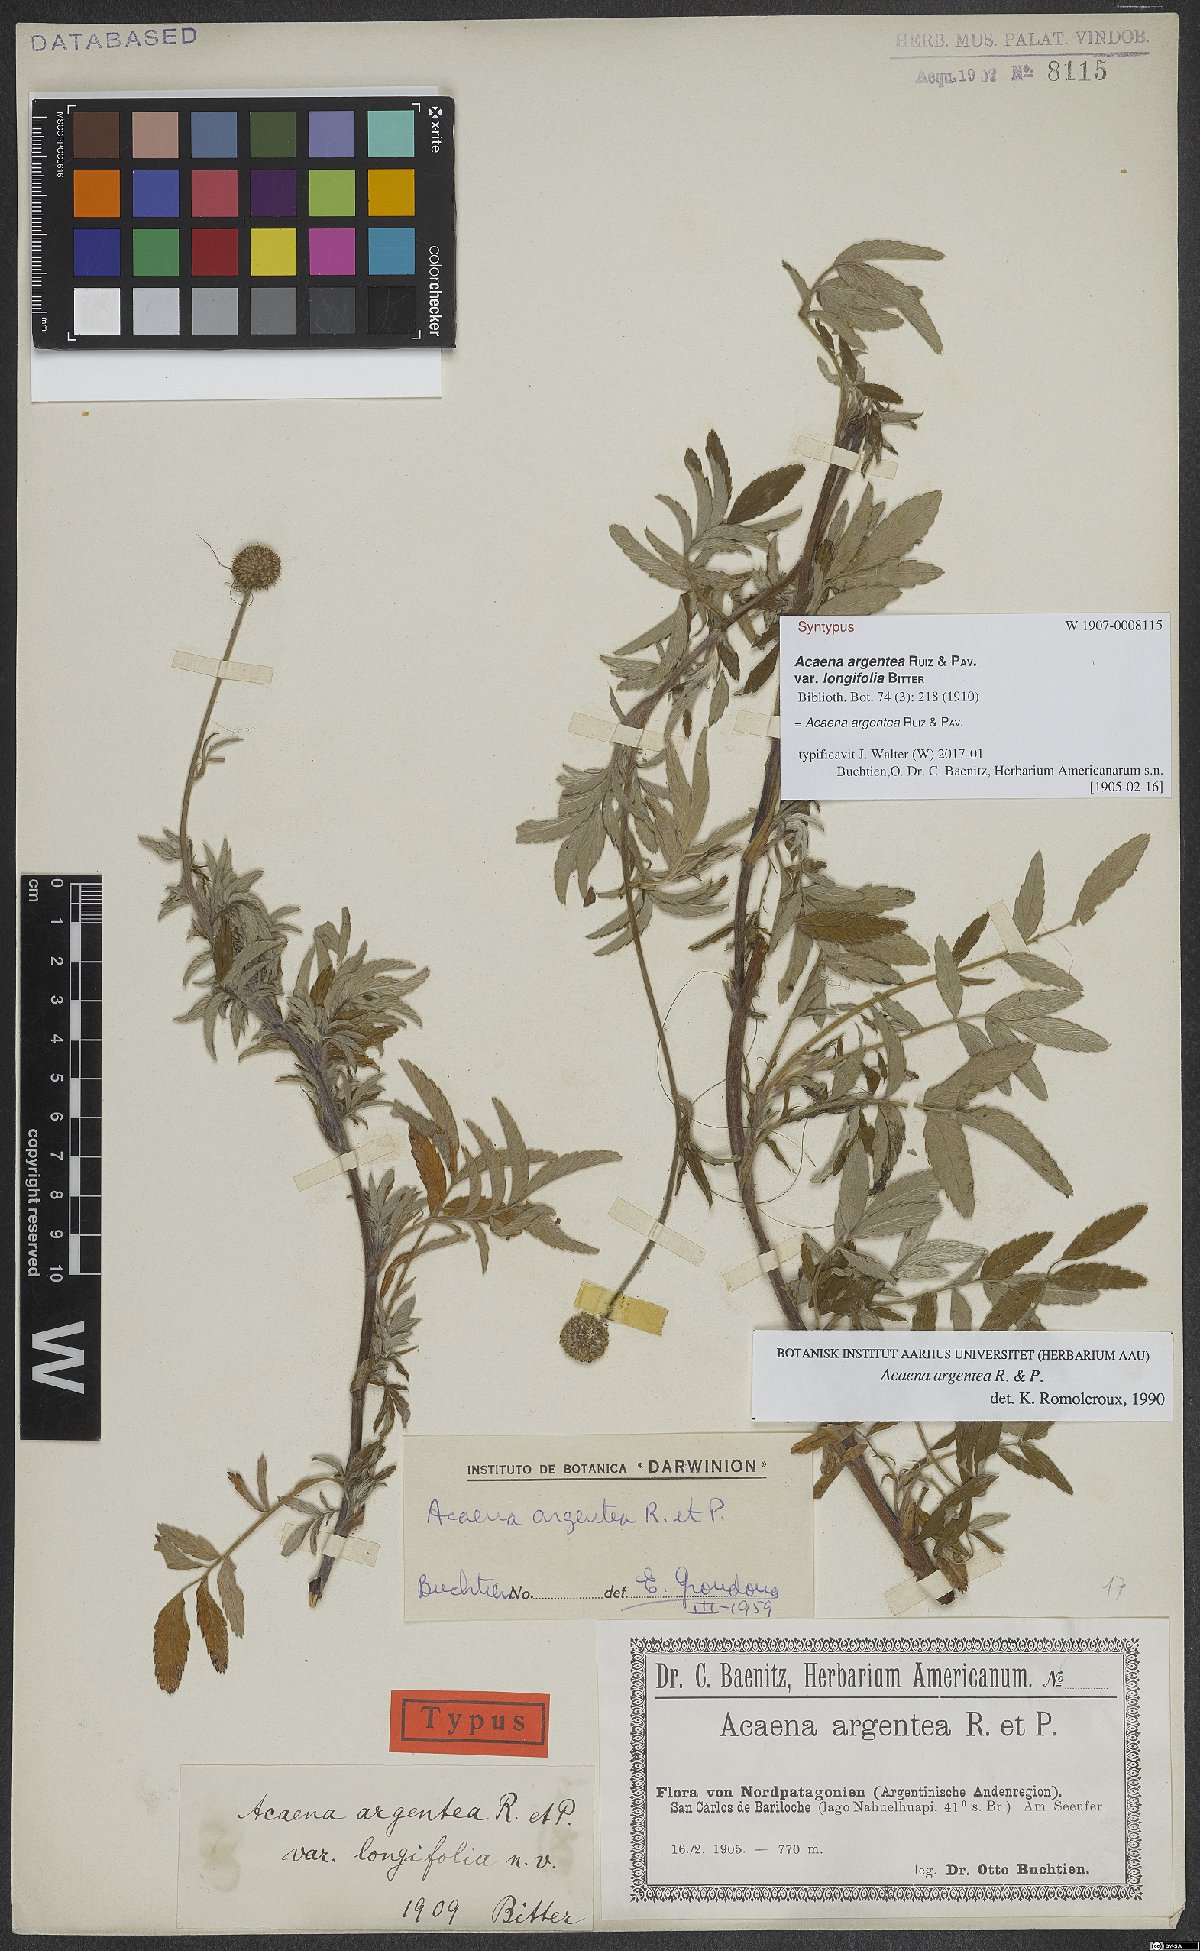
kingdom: Plantae
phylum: Tracheophyta
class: Magnoliopsida
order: Rosales
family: Rosaceae
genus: Acaena
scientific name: Acaena argentea
